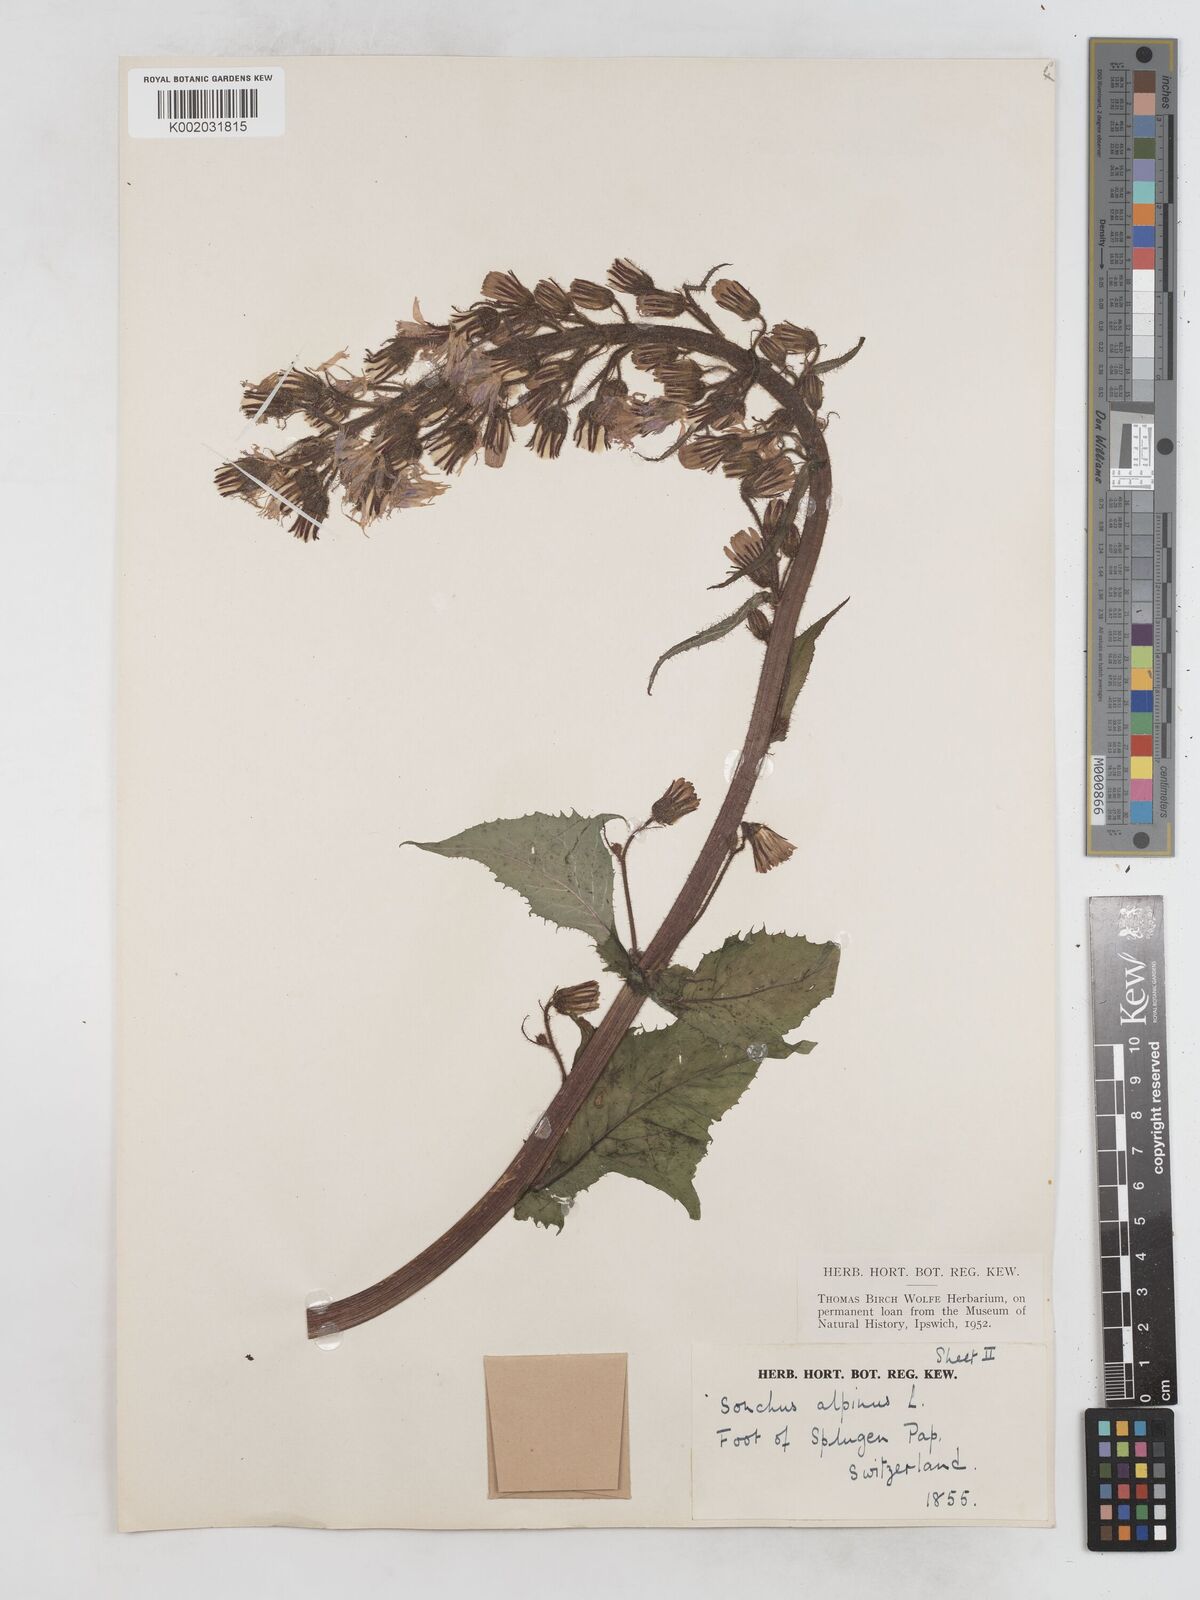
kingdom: Plantae
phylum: Tracheophyta
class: Magnoliopsida
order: Asterales
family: Asteraceae
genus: Cicerbita
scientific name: Cicerbita alpina
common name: Alpine blue-sow-thistle
